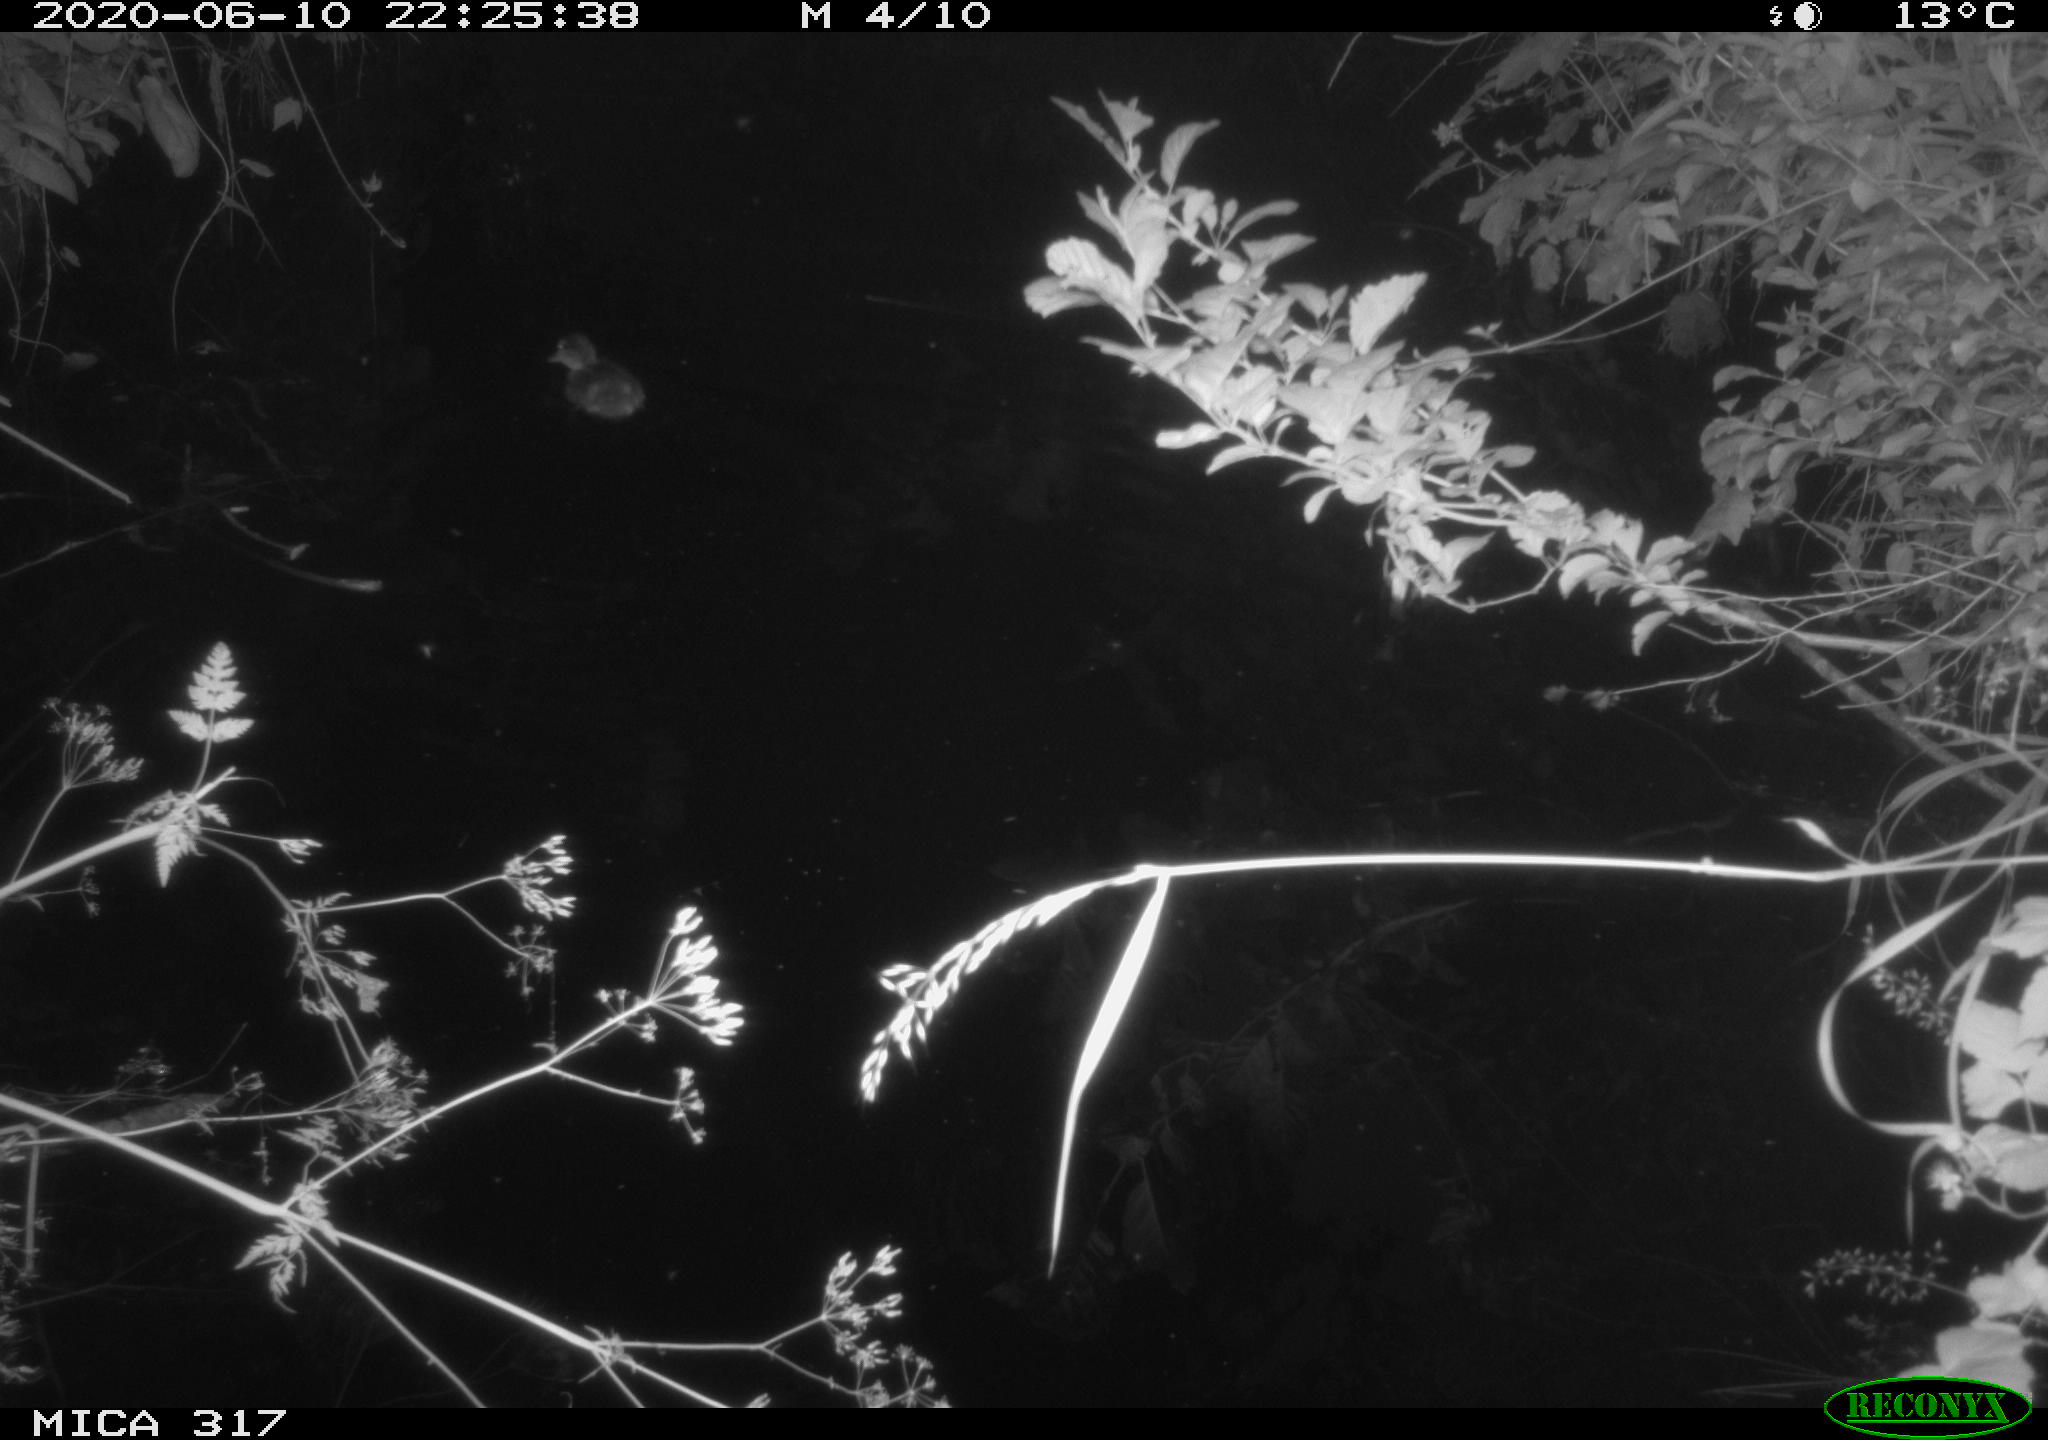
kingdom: Animalia
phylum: Chordata
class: Aves
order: Anseriformes
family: Anatidae
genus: Anas
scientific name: Anas platyrhynchos
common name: Mallard
